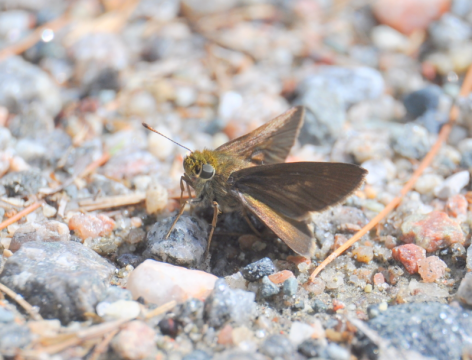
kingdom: Animalia
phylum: Arthropoda
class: Insecta
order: Lepidoptera
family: Hesperiidae
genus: Euphyes
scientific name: Euphyes vestris
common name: Dun Skipper
